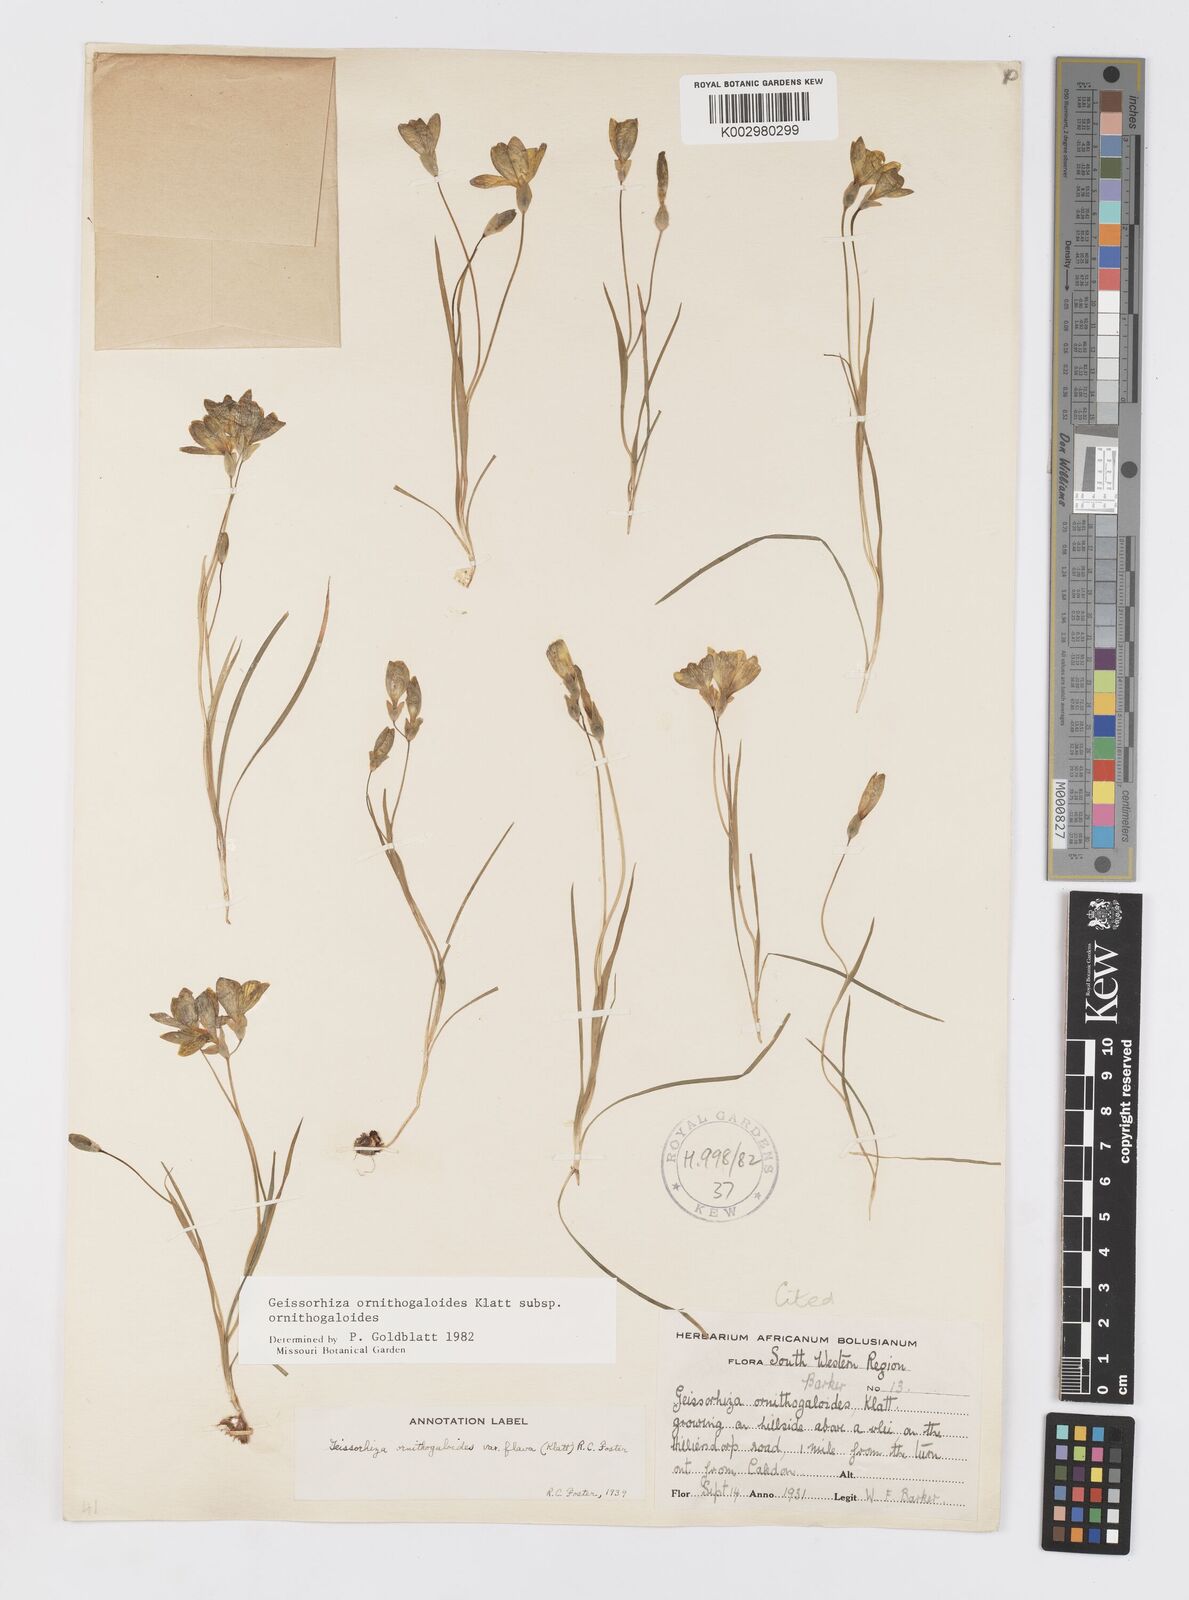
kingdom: Plantae
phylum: Tracheophyta
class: Liliopsida
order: Asparagales
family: Iridaceae
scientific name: Iridaceae
